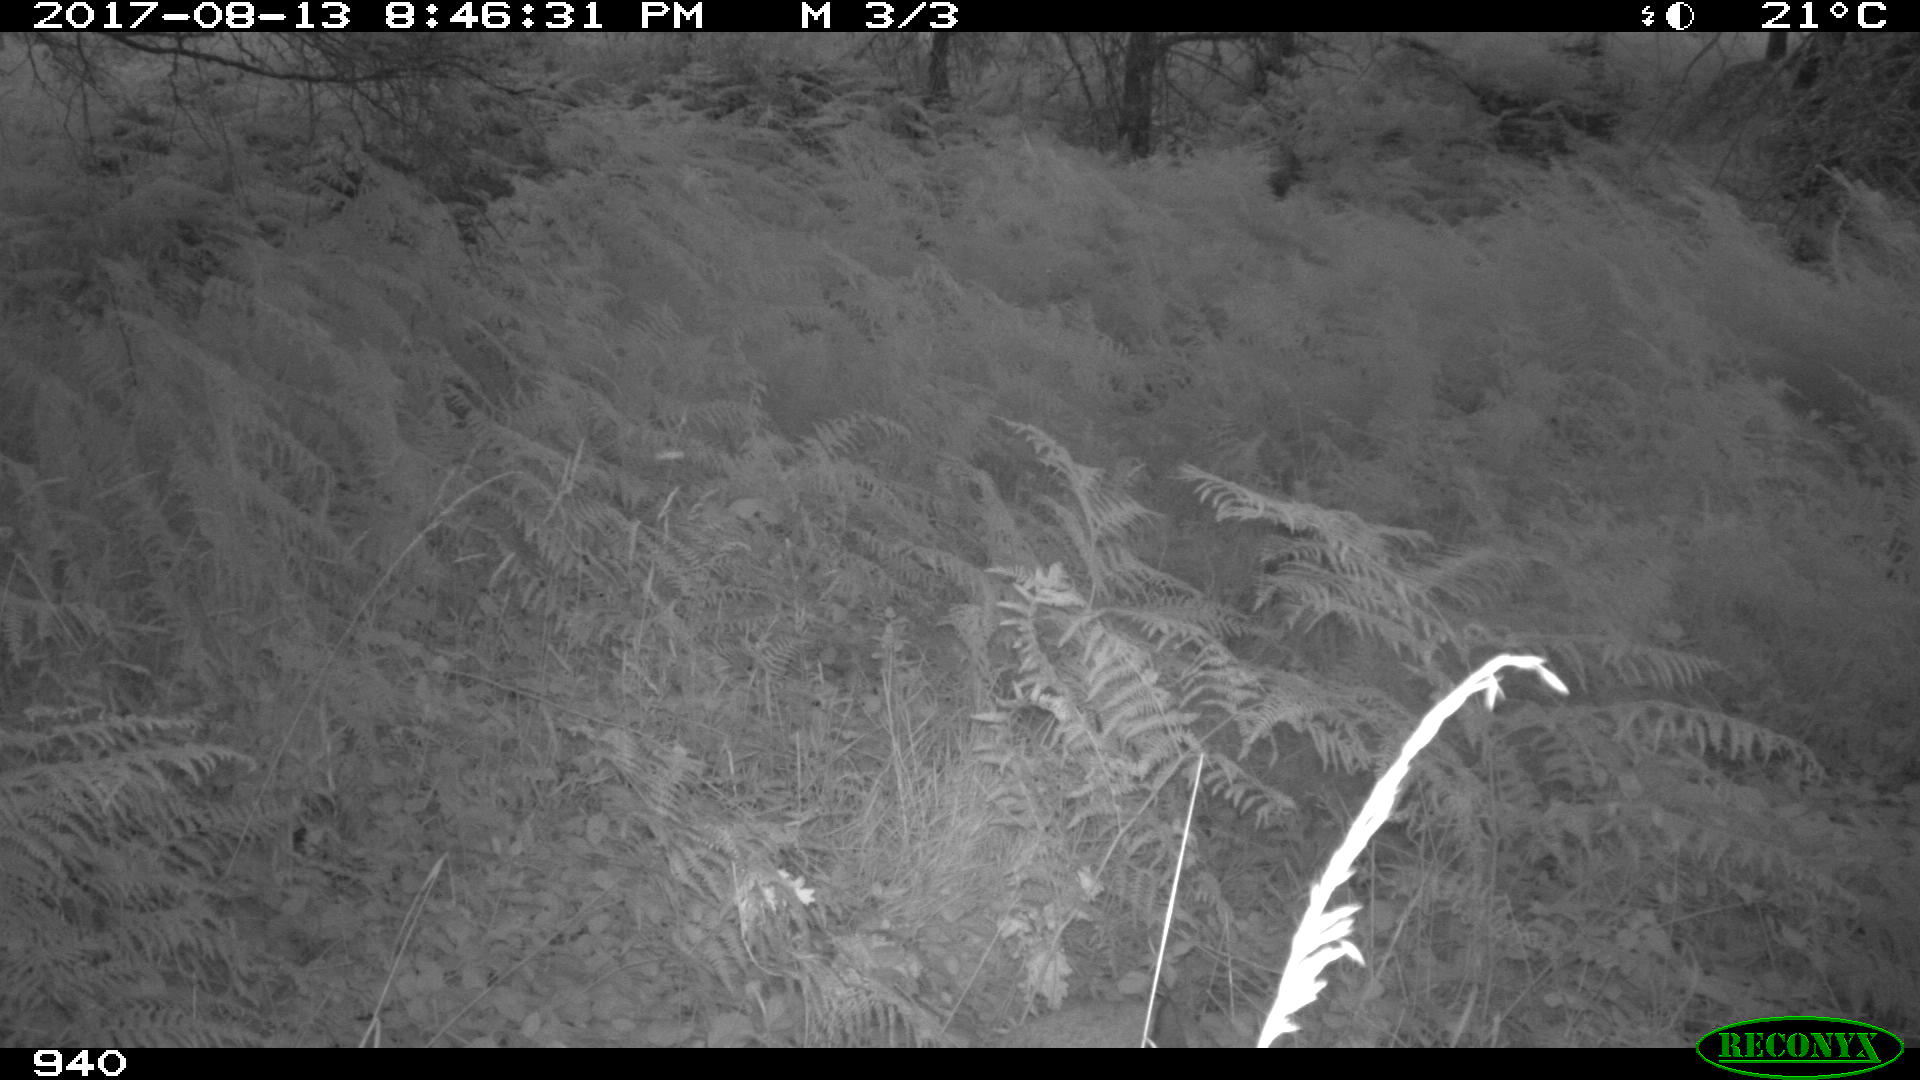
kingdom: Animalia
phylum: Chordata
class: Mammalia
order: Artiodactyla
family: Cervidae
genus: Capreolus
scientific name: Capreolus capreolus
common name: Western roe deer
